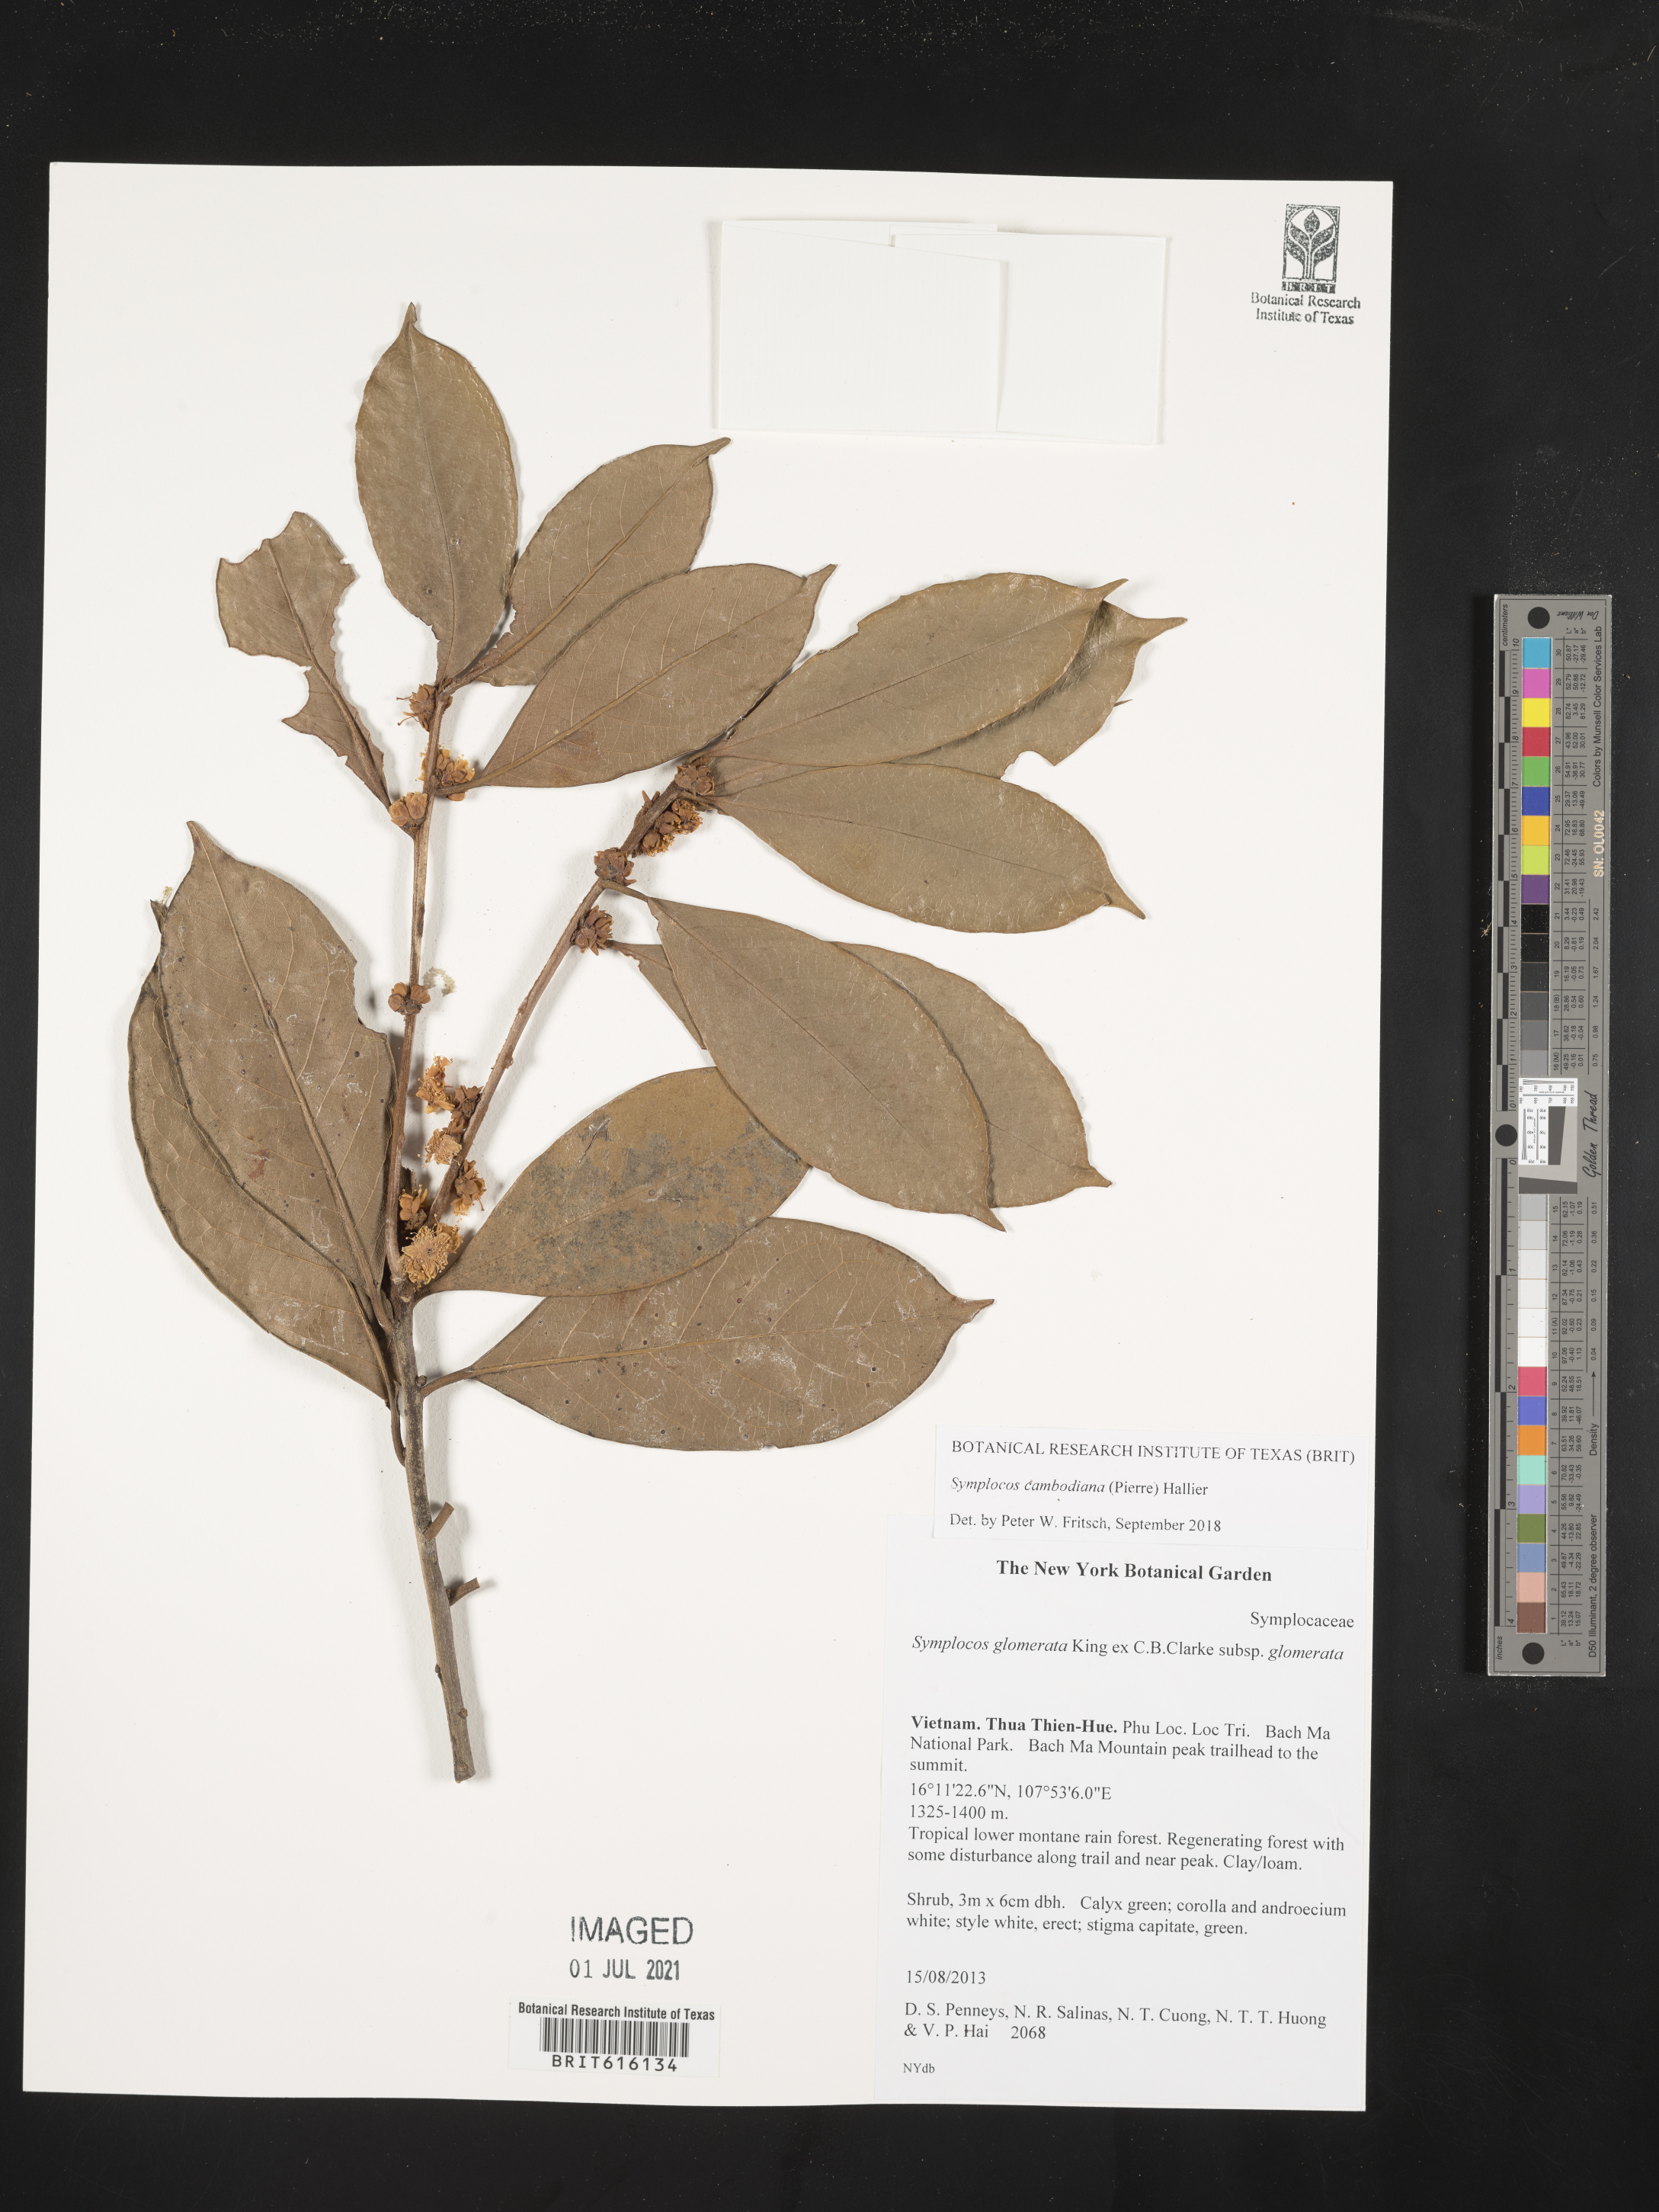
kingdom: Plantae
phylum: Tracheophyta
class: Magnoliopsida
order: Ericales
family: Symplocaceae
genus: Symplocos
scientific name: Symplocos cambodiana
